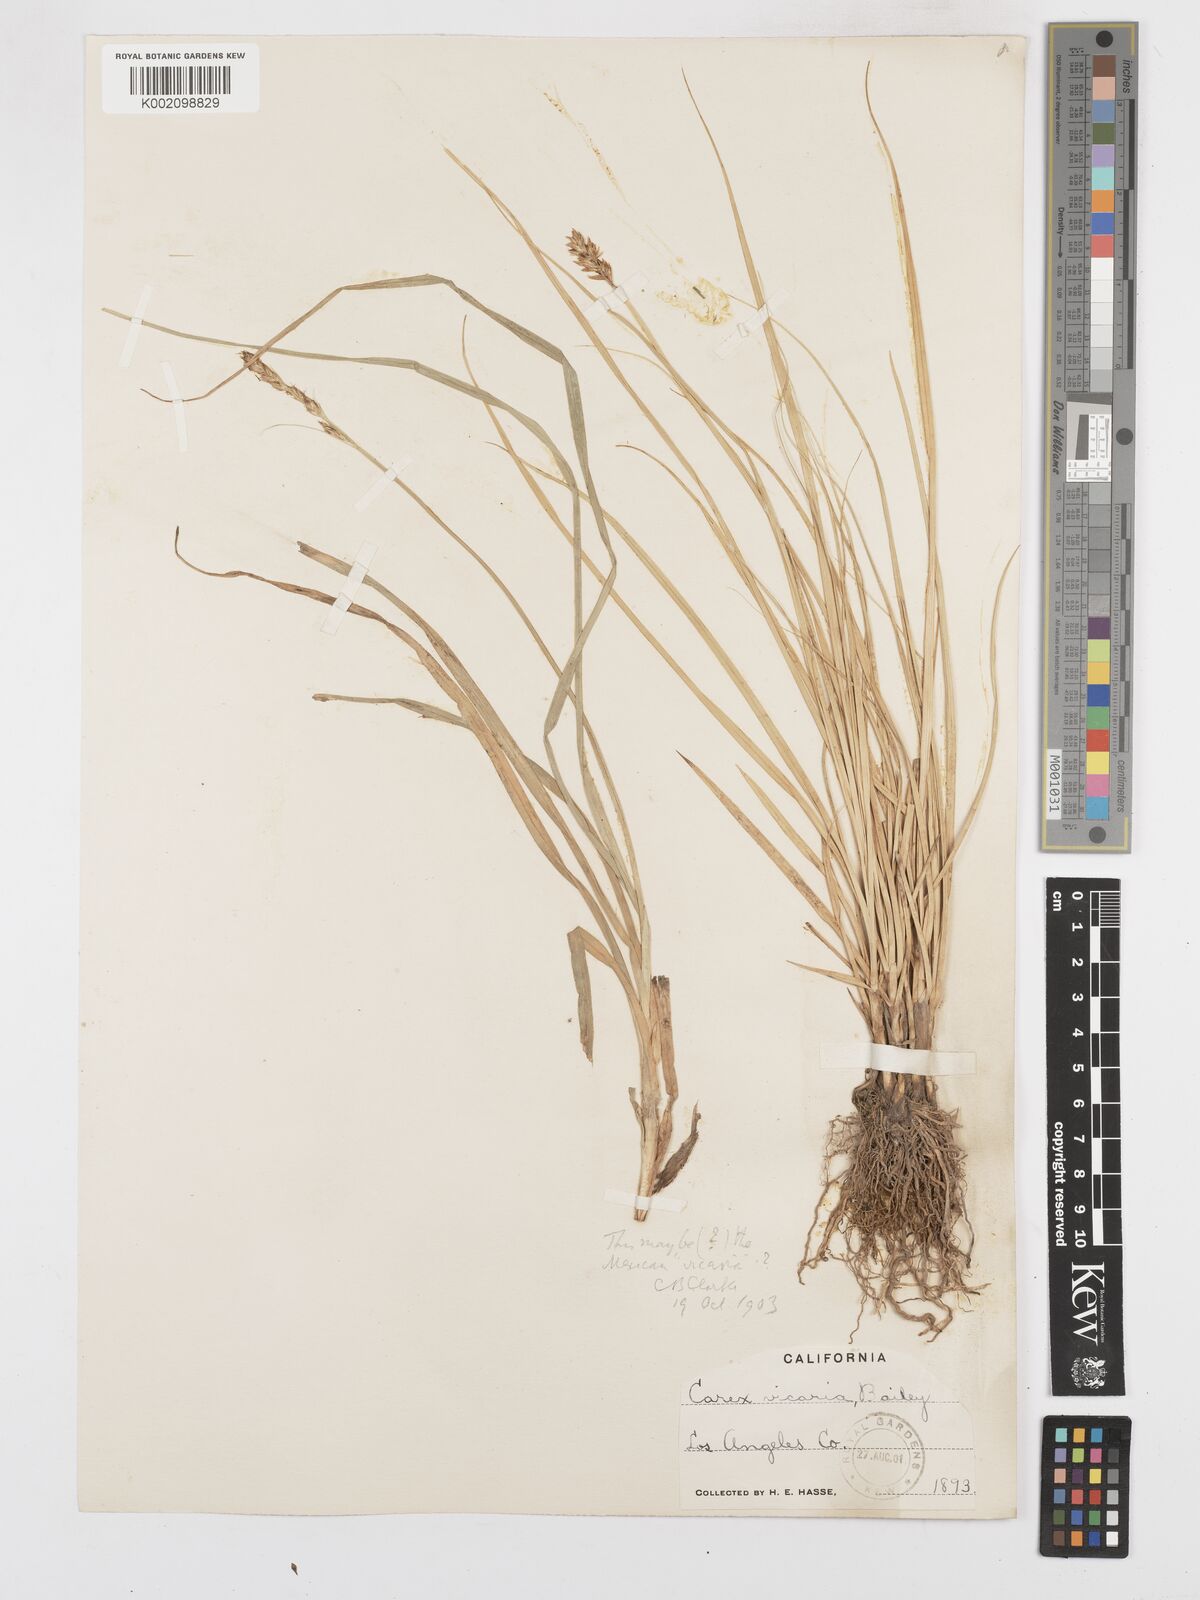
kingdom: Plantae
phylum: Tracheophyta
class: Liliopsida
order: Poales
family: Cyperaceae
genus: Carex
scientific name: Carex densa
